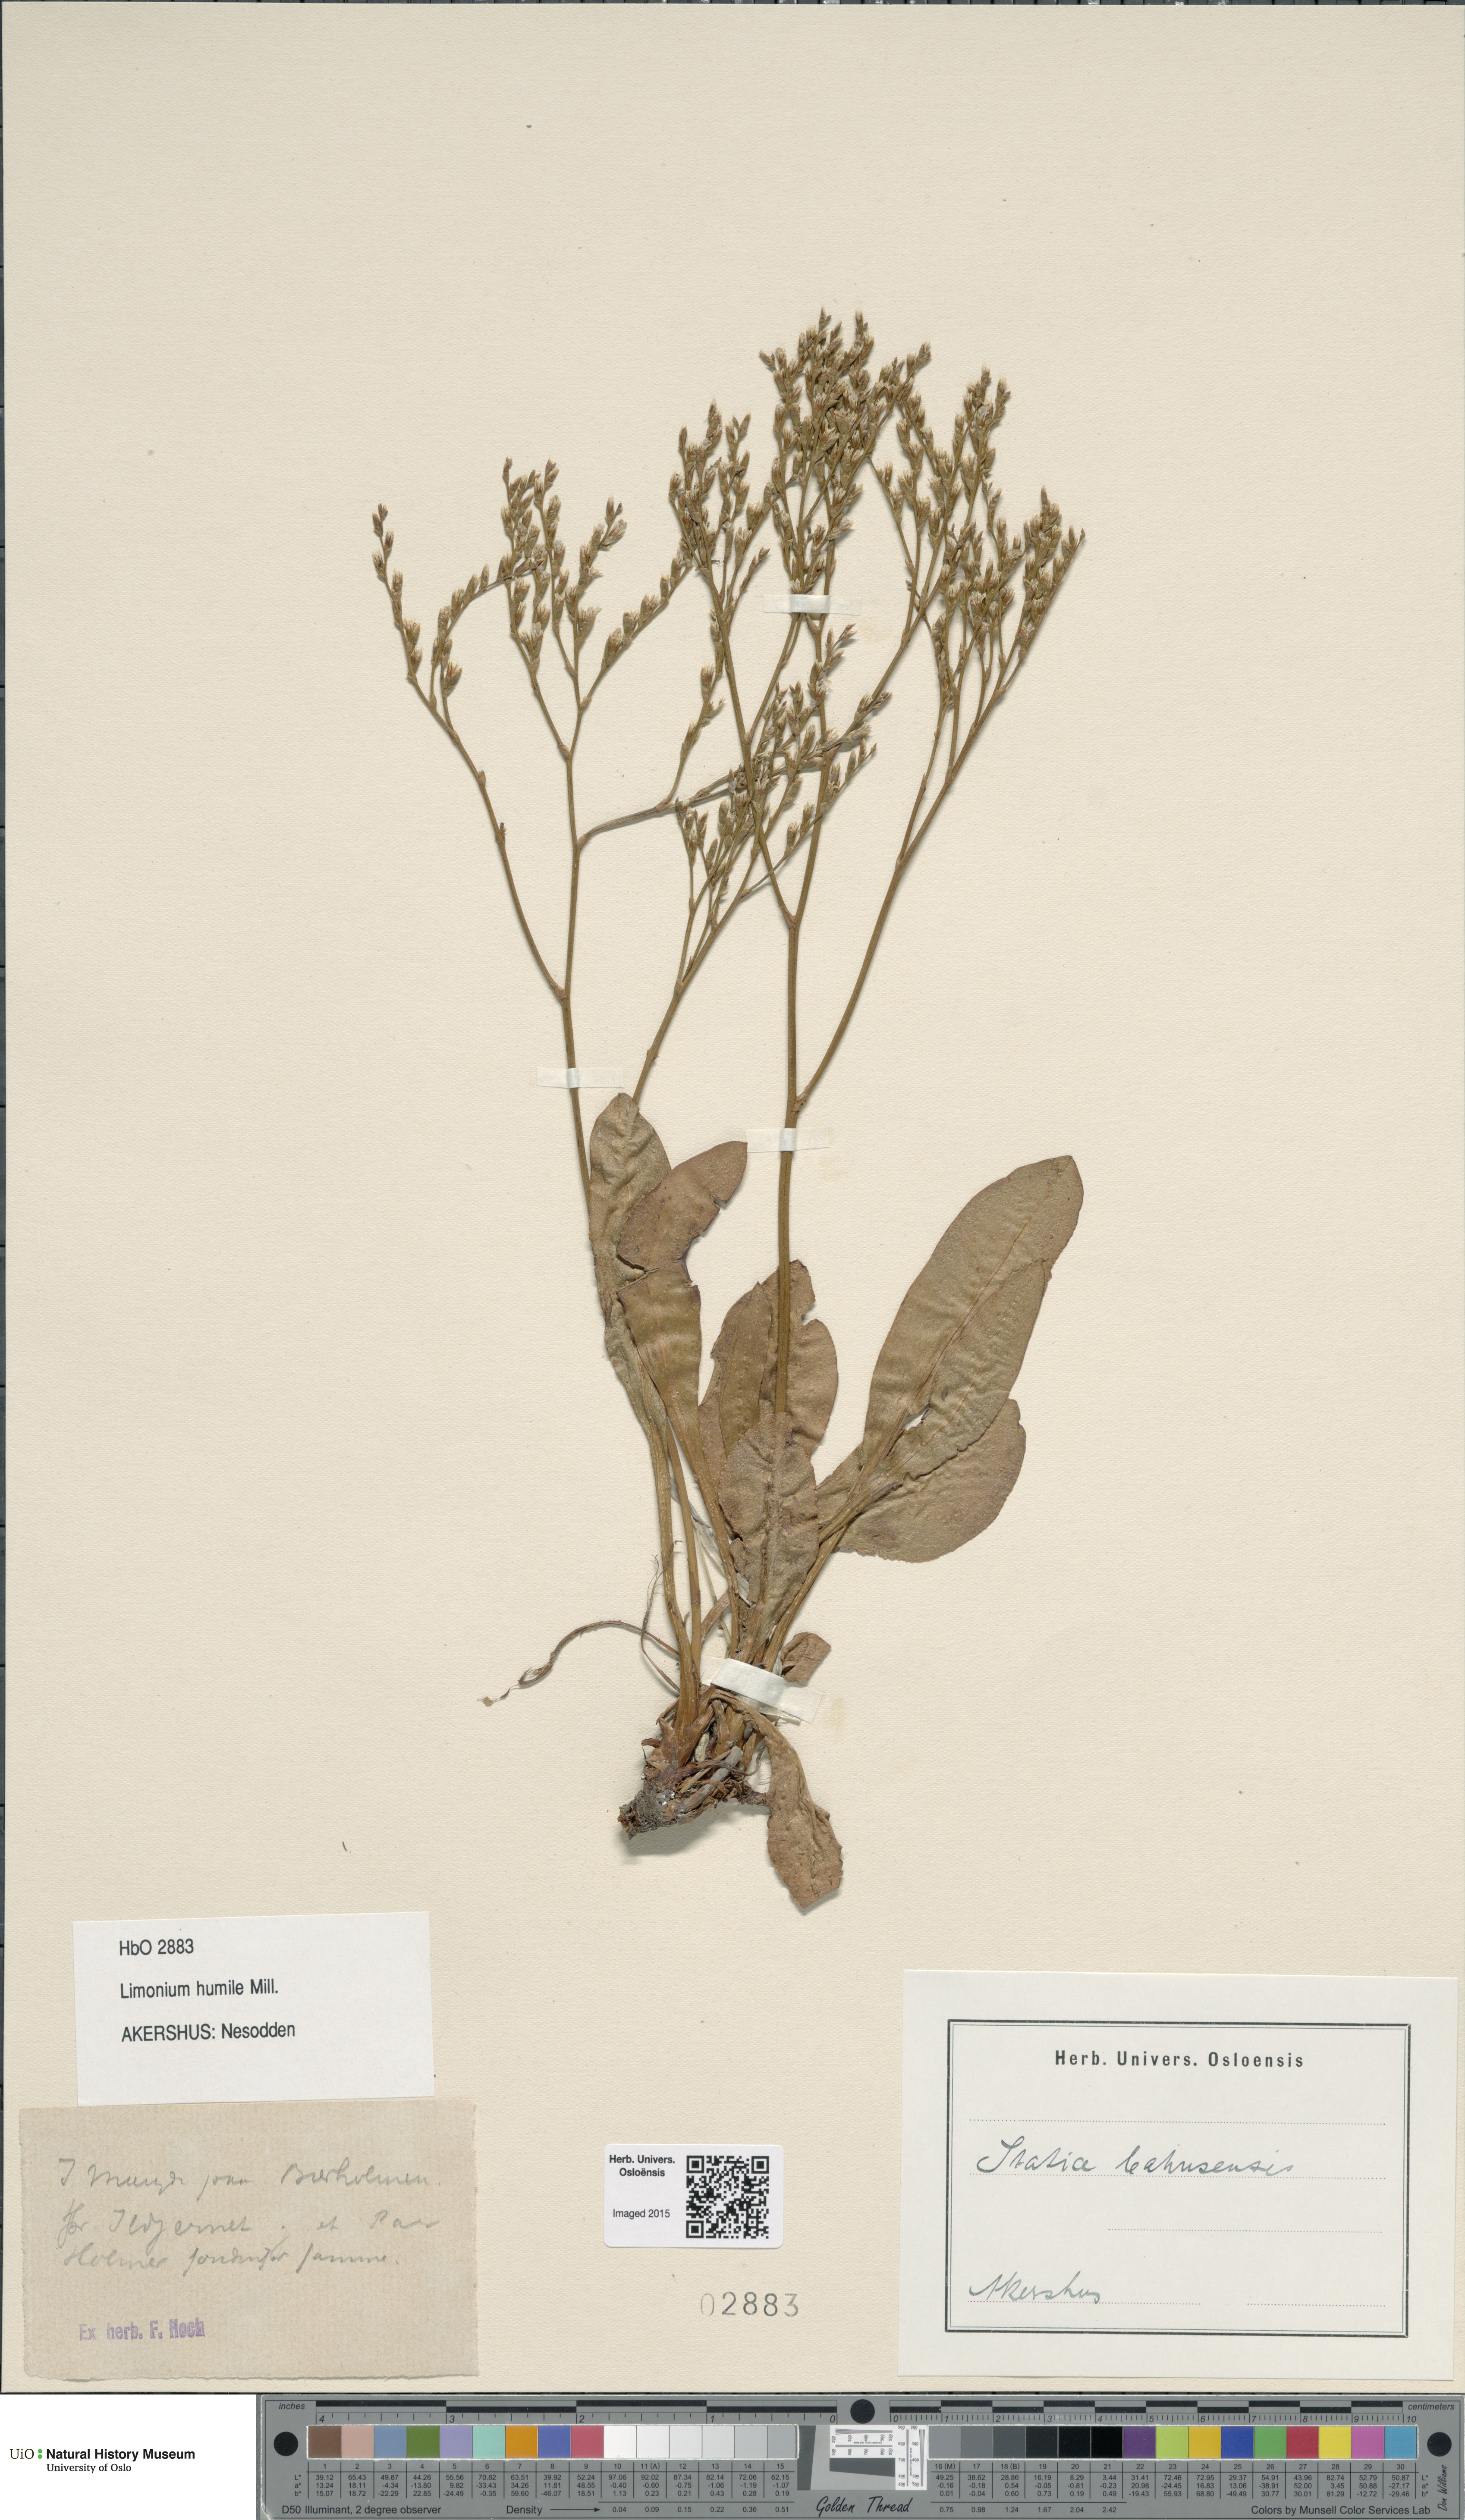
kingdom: Plantae
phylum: Tracheophyta
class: Magnoliopsida
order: Caryophyllales
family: Plumbaginaceae
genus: Limonium
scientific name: Limonium humile
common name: Lax-flowered sea-lavender
